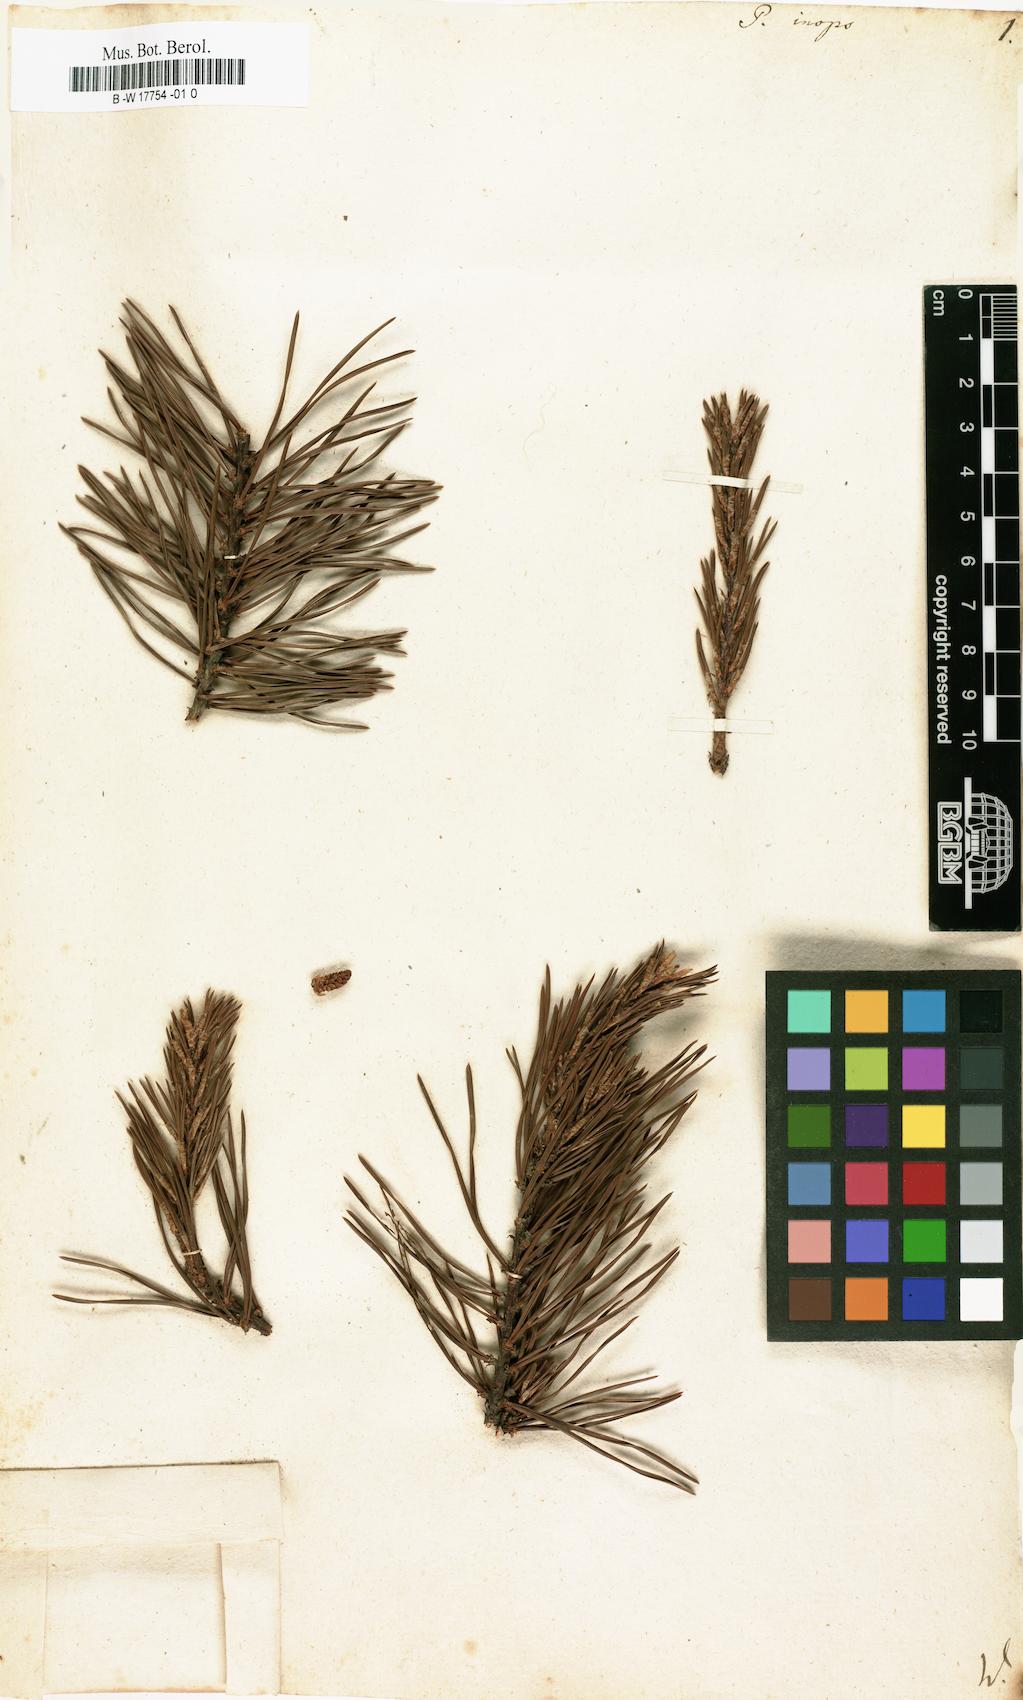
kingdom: Plantae
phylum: Tracheophyta
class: Pinopsida
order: Pinales
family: Pinaceae
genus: Pinus
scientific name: Pinus virginiana
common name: Scrub pine
